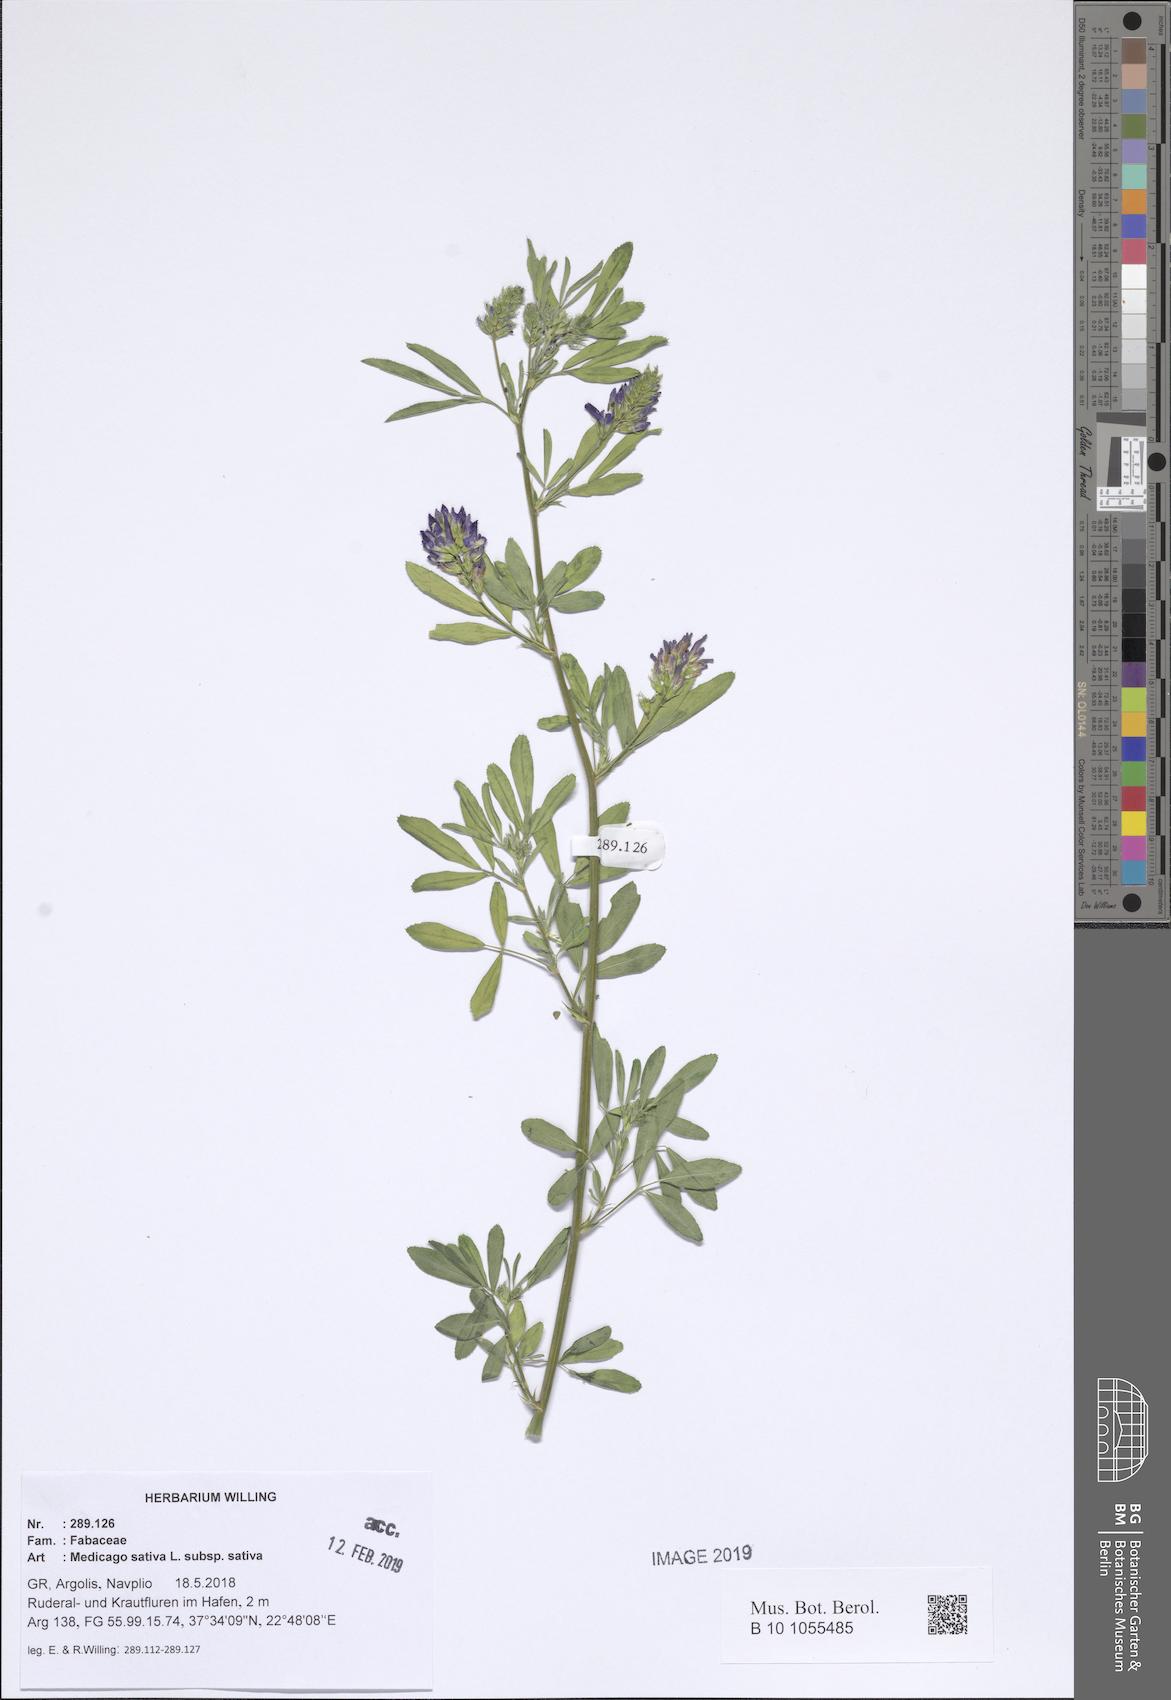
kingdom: Plantae
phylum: Tracheophyta
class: Magnoliopsida
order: Fabales
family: Fabaceae
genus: Medicago
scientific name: Medicago sativa
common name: Alfalfa
